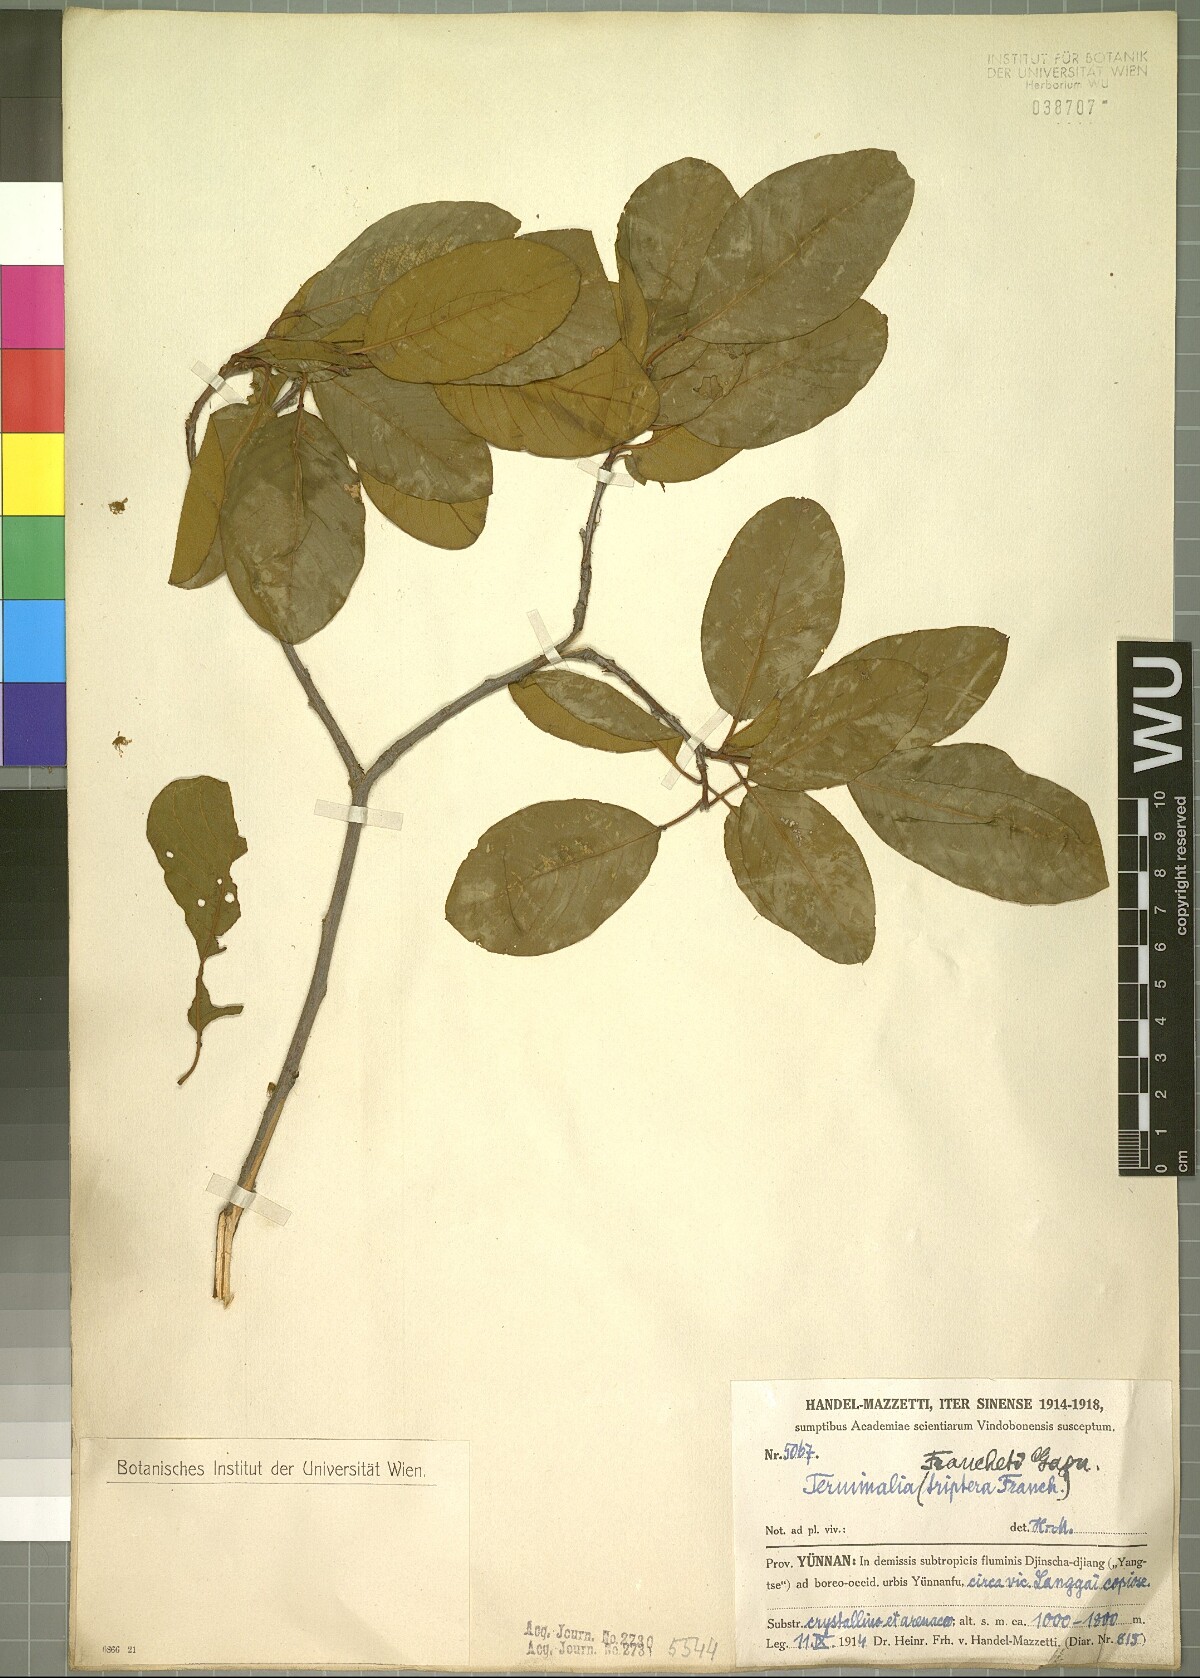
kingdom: Plantae
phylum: Tracheophyta
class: Magnoliopsida
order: Myrtales
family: Combretaceae
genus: Terminalia
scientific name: Terminalia franchetii
